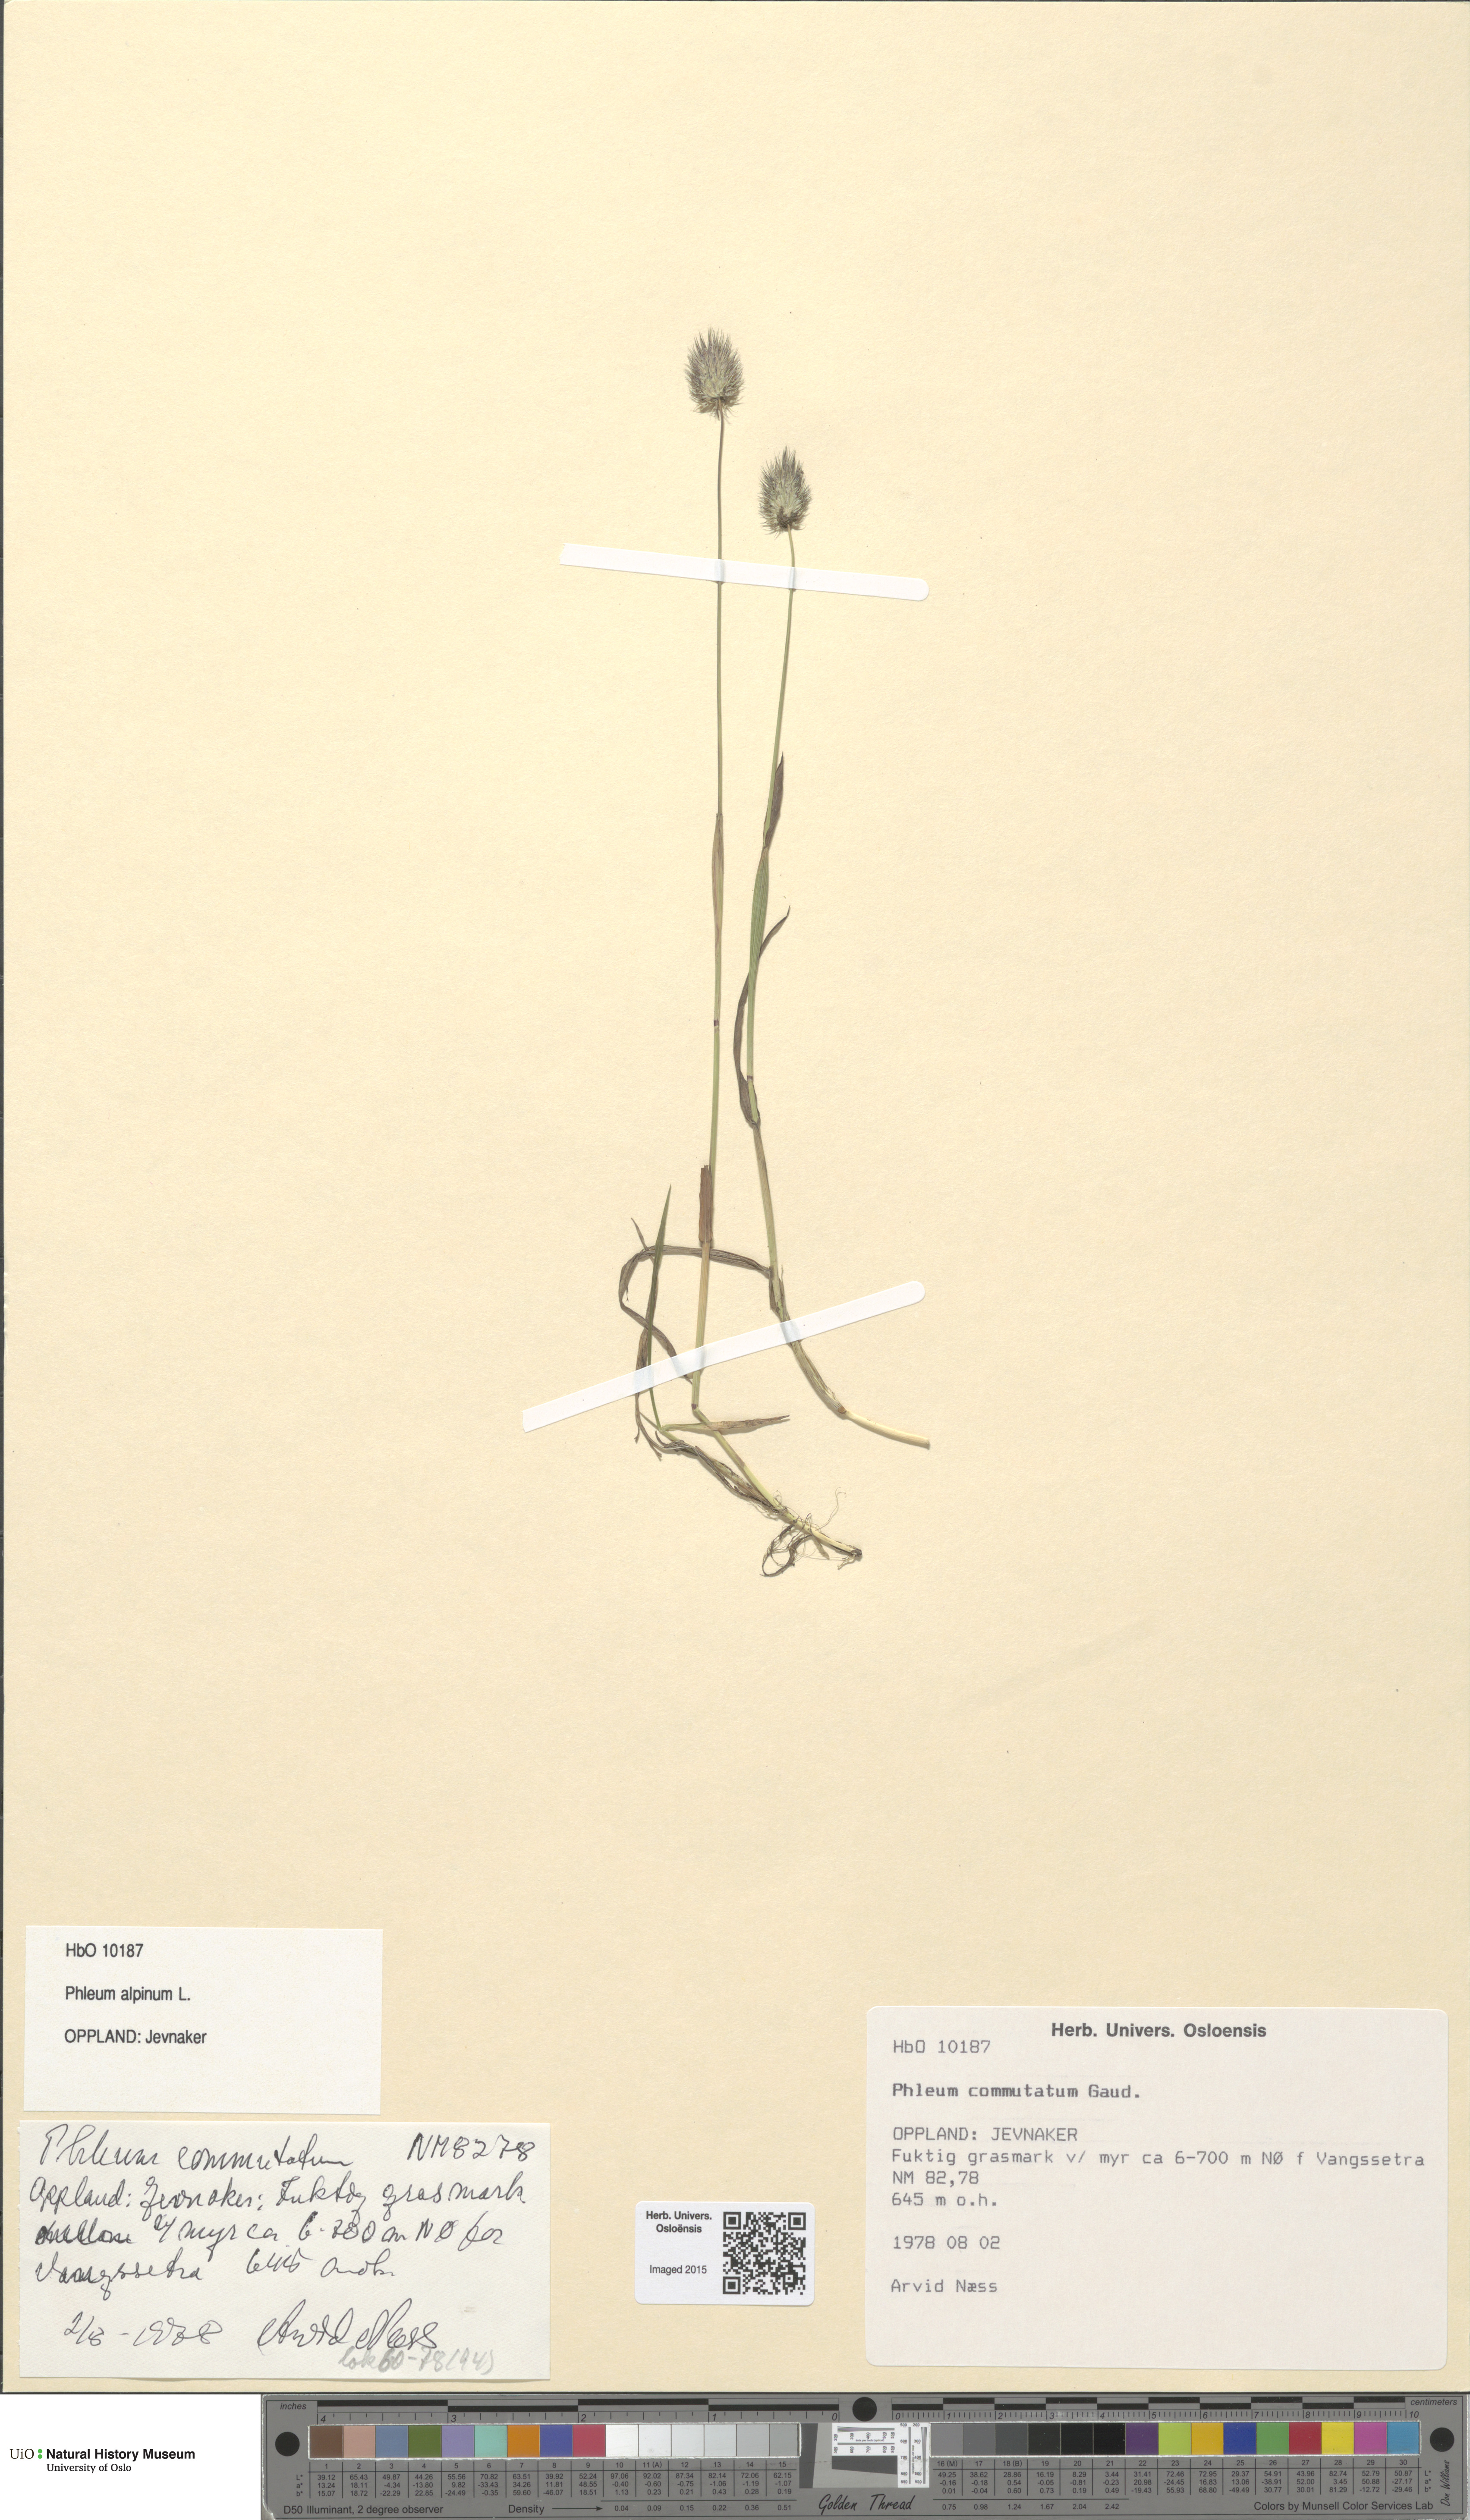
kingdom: Plantae
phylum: Tracheophyta
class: Liliopsida
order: Poales
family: Poaceae
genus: Phleum
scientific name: Phleum alpinum
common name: Alpine cat's-tail
